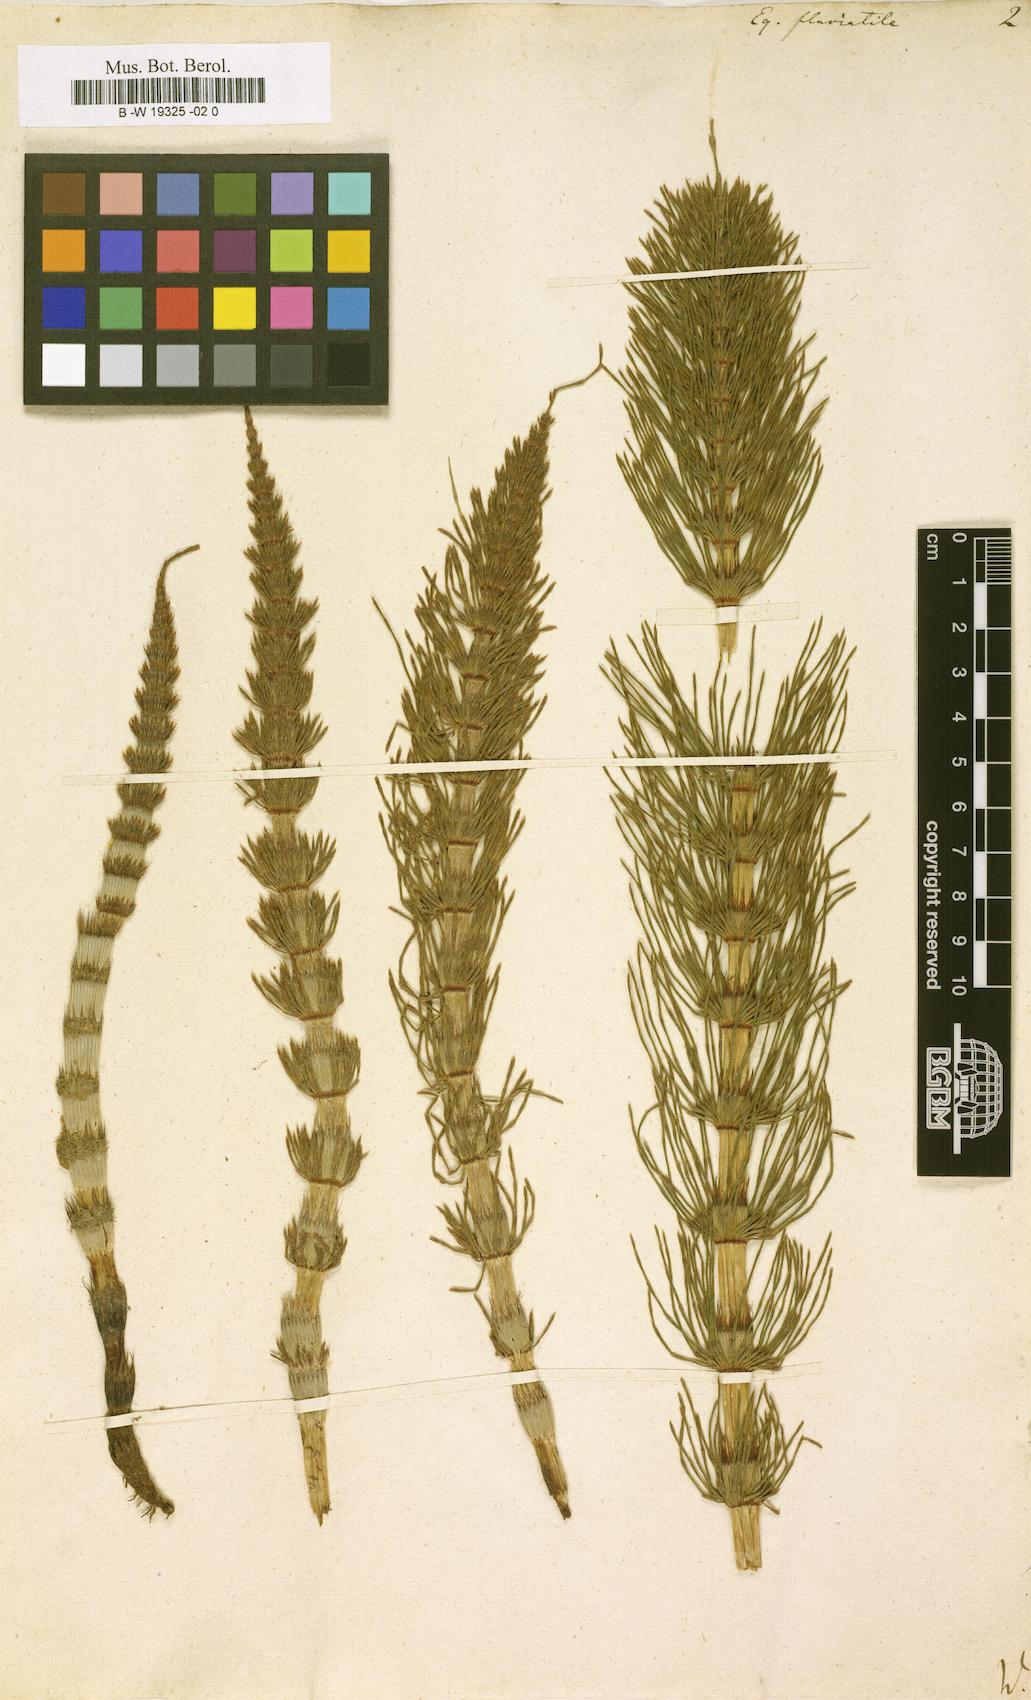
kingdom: Plantae
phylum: Tracheophyta
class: Polypodiopsida
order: Equisetales
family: Equisetaceae
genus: Equisetum
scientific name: Equisetum fluviatile
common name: Water horsetail
